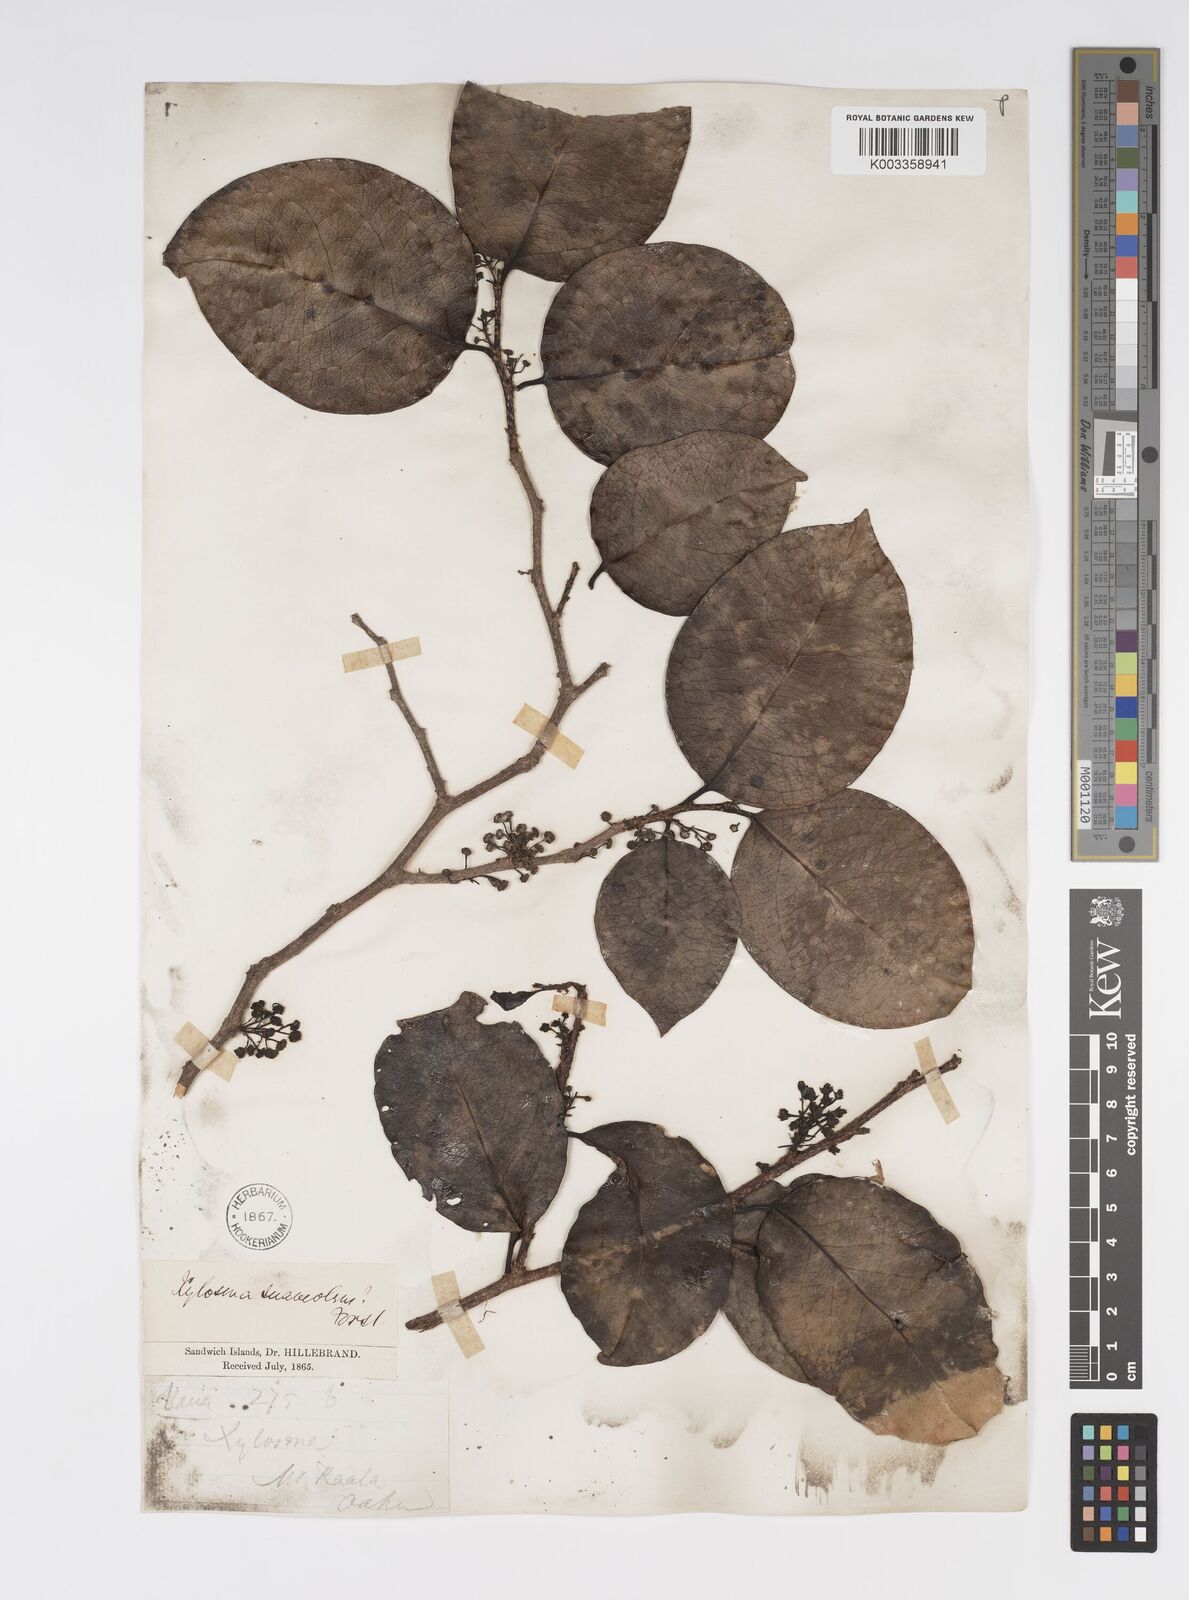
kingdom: Plantae
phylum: Tracheophyta
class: Magnoliopsida
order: Malpighiales
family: Salicaceae
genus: Xylosma
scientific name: Xylosma hawaiense
